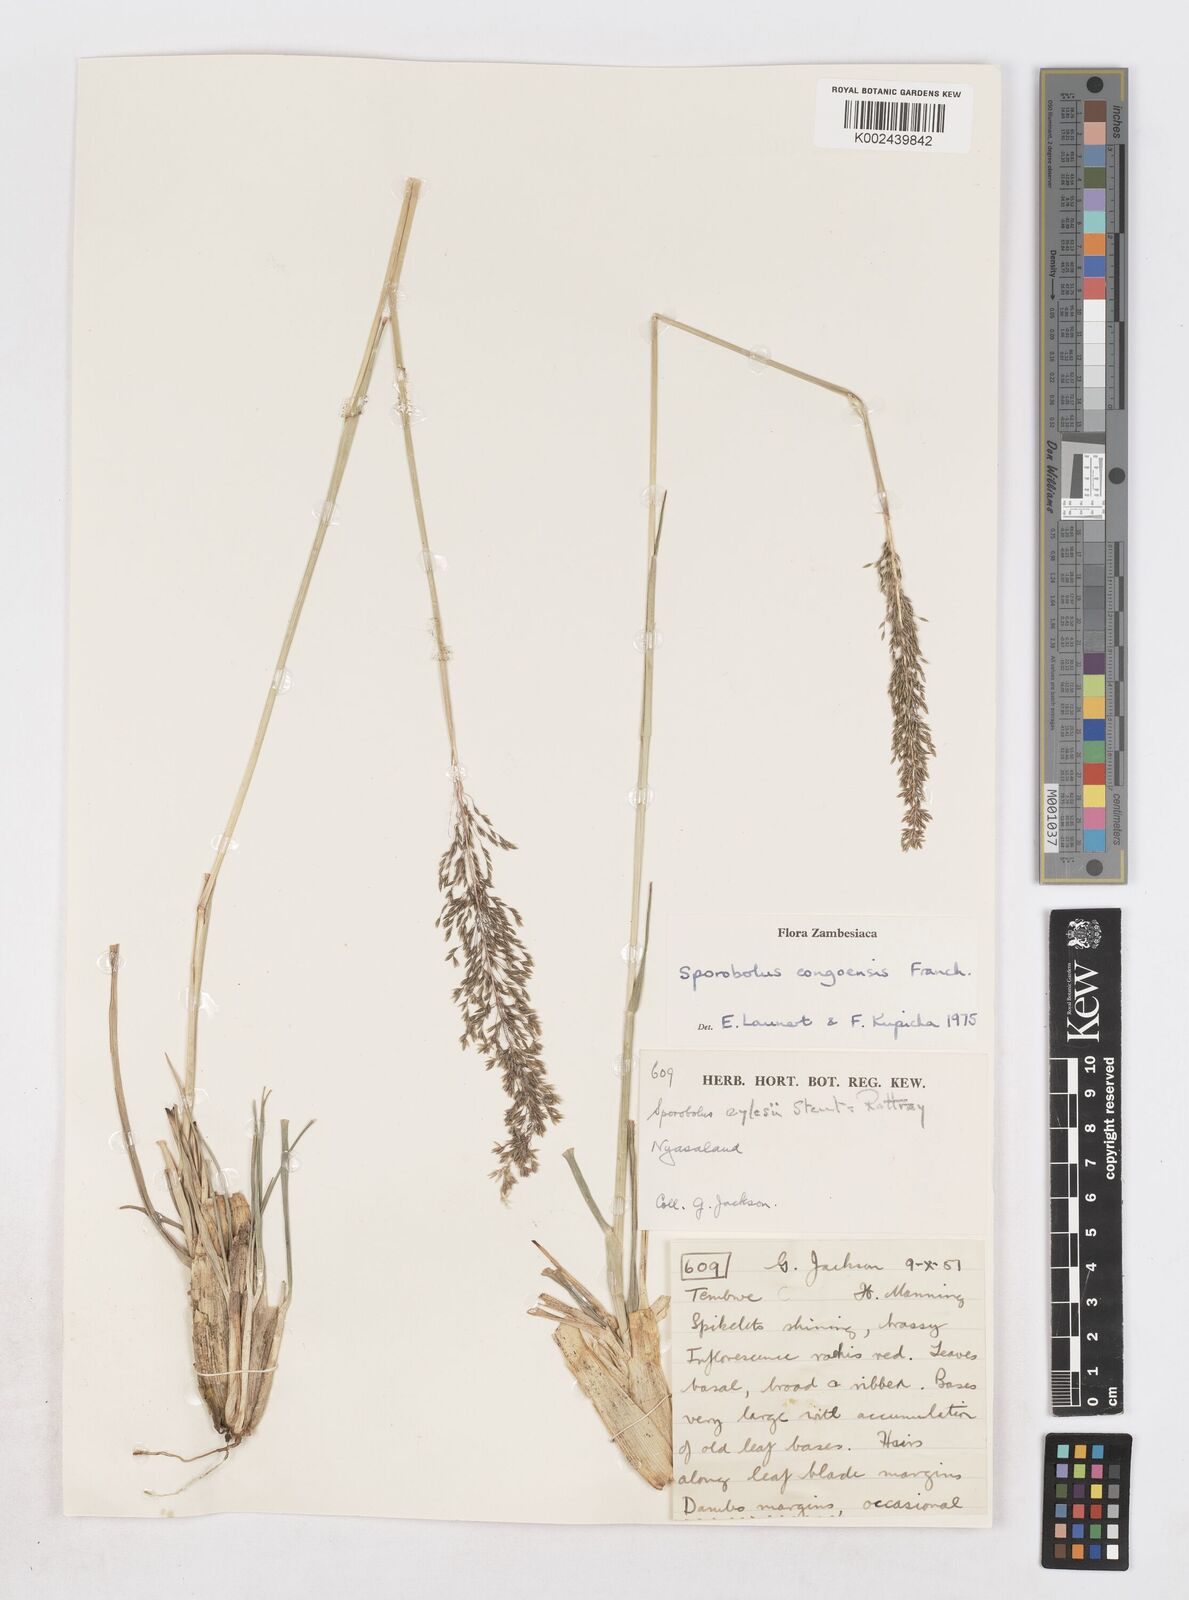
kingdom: Plantae
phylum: Tracheophyta
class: Liliopsida
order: Poales
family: Poaceae
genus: Sporobolus
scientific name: Sporobolus congoensis
